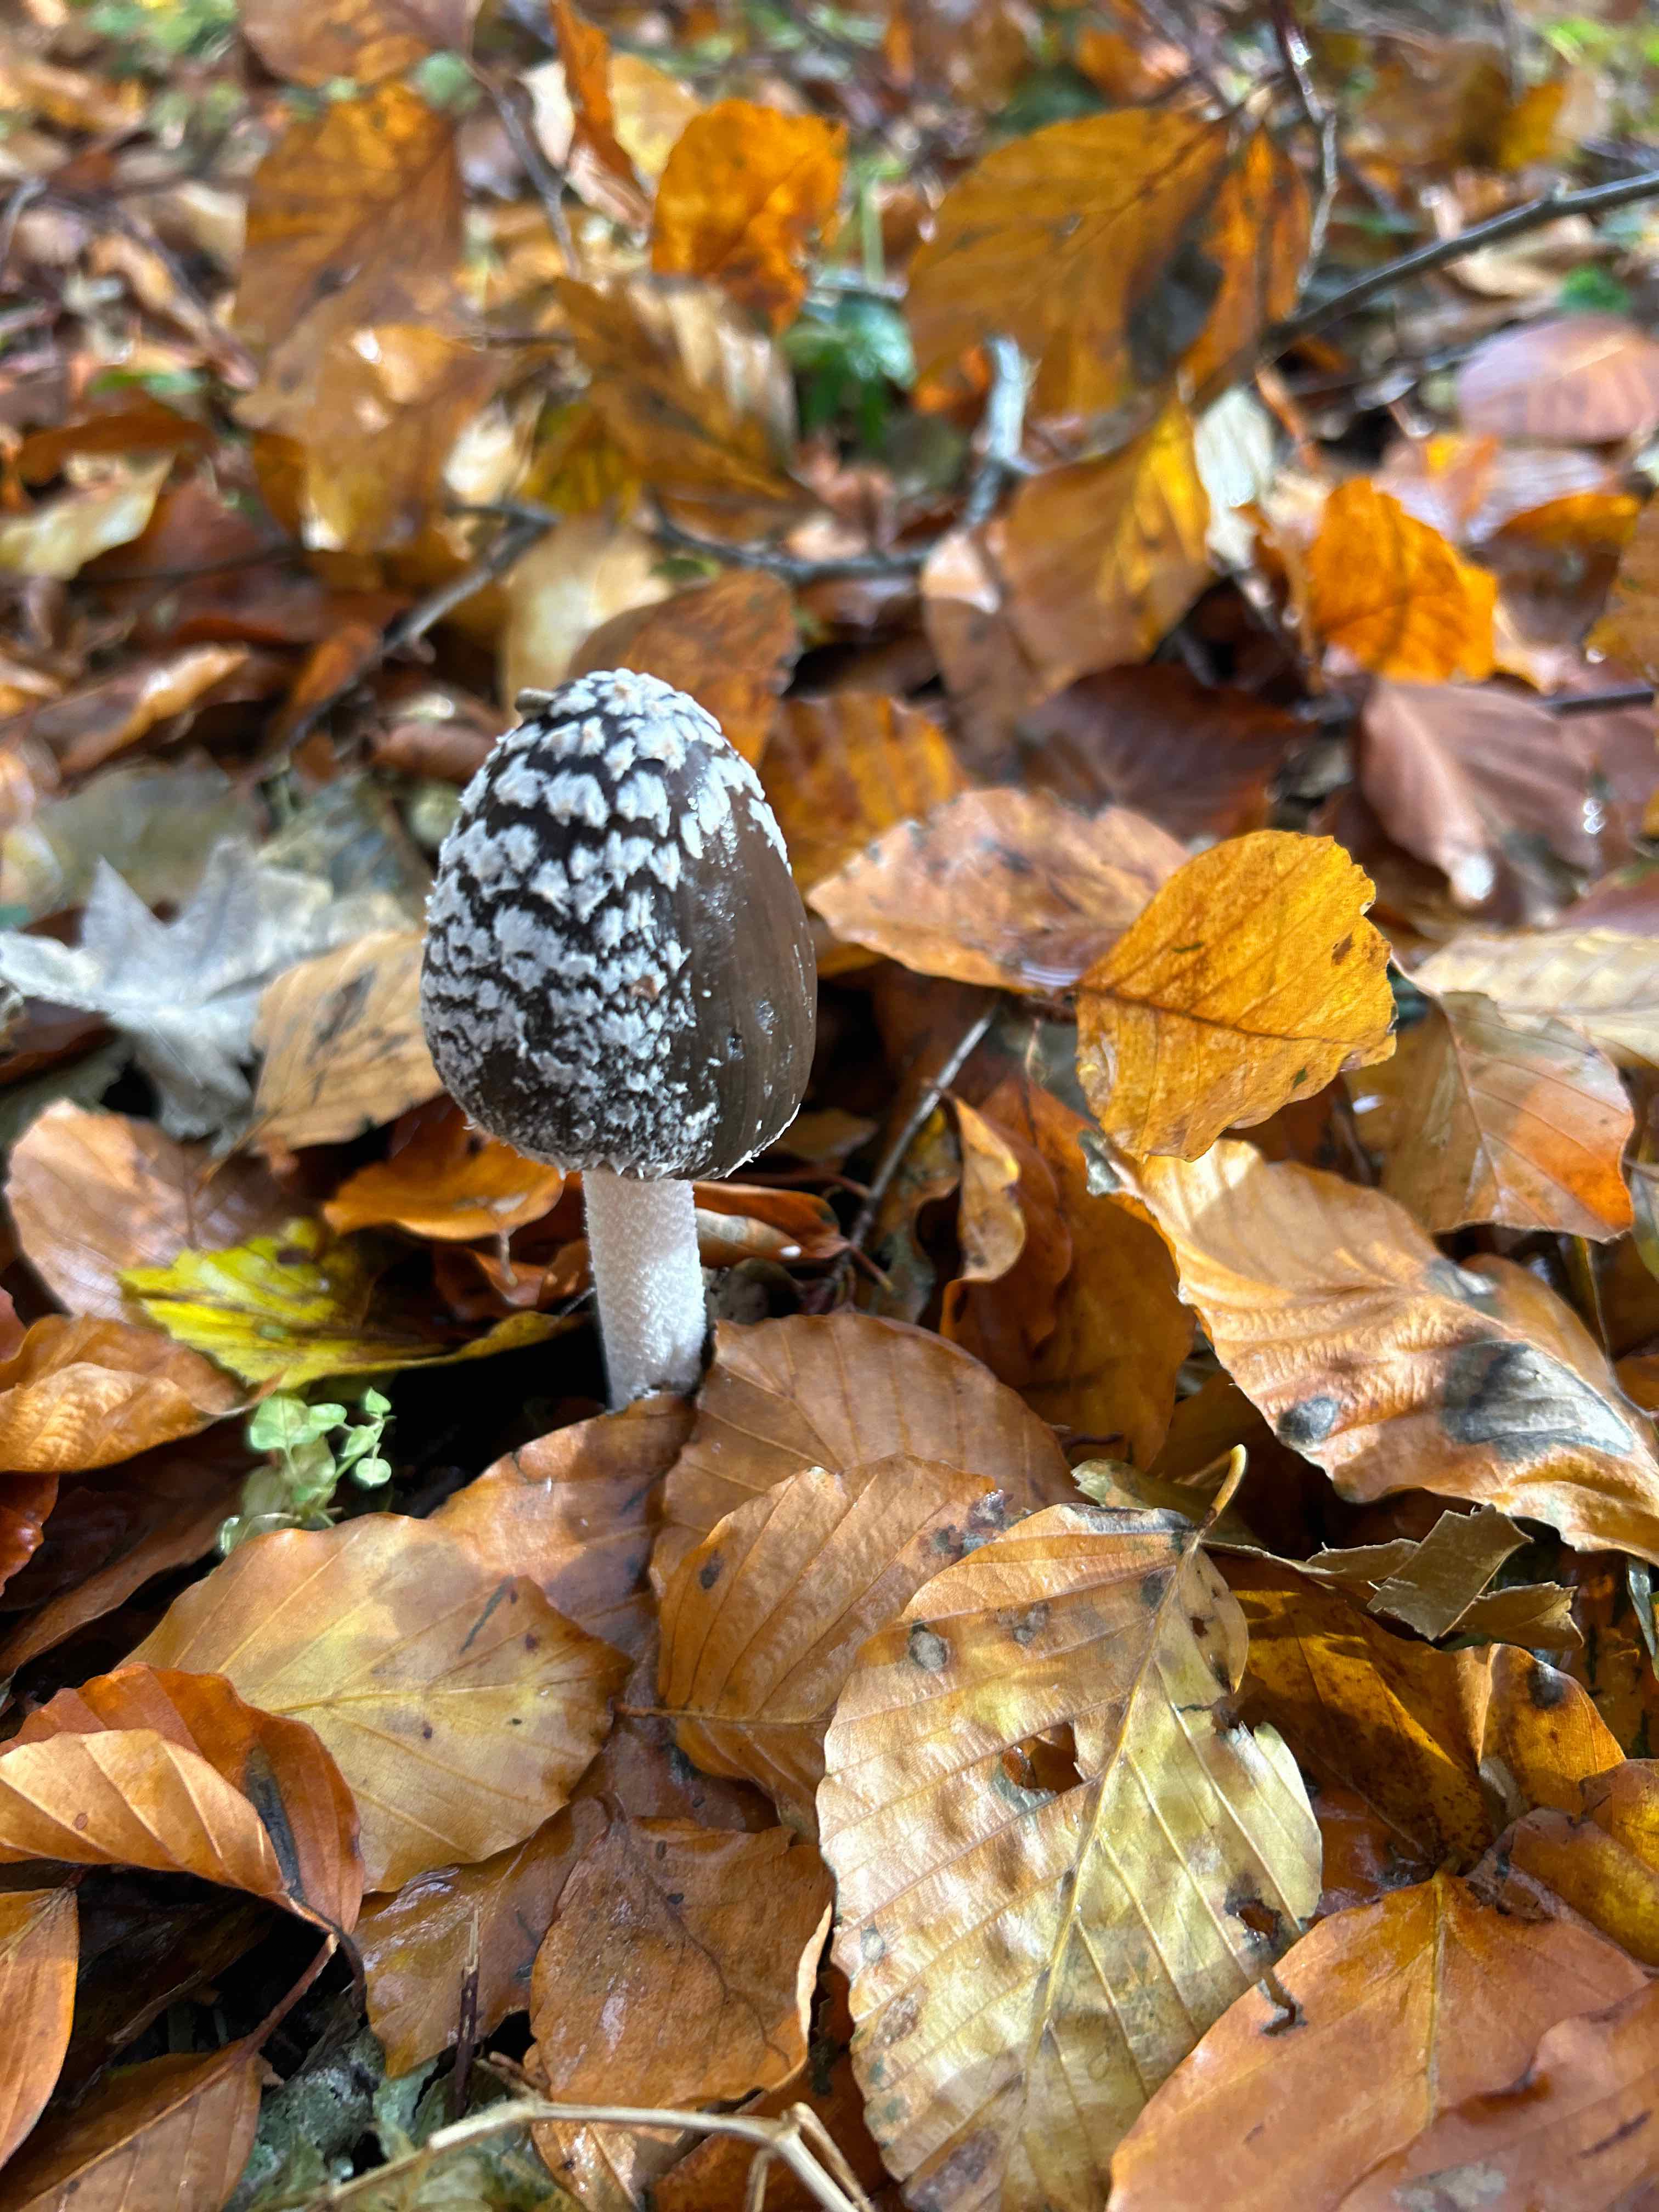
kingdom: Fungi
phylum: Basidiomycota
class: Agaricomycetes
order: Agaricales
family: Psathyrellaceae
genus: Coprinopsis
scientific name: Coprinopsis picacea
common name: skade-blækhat
